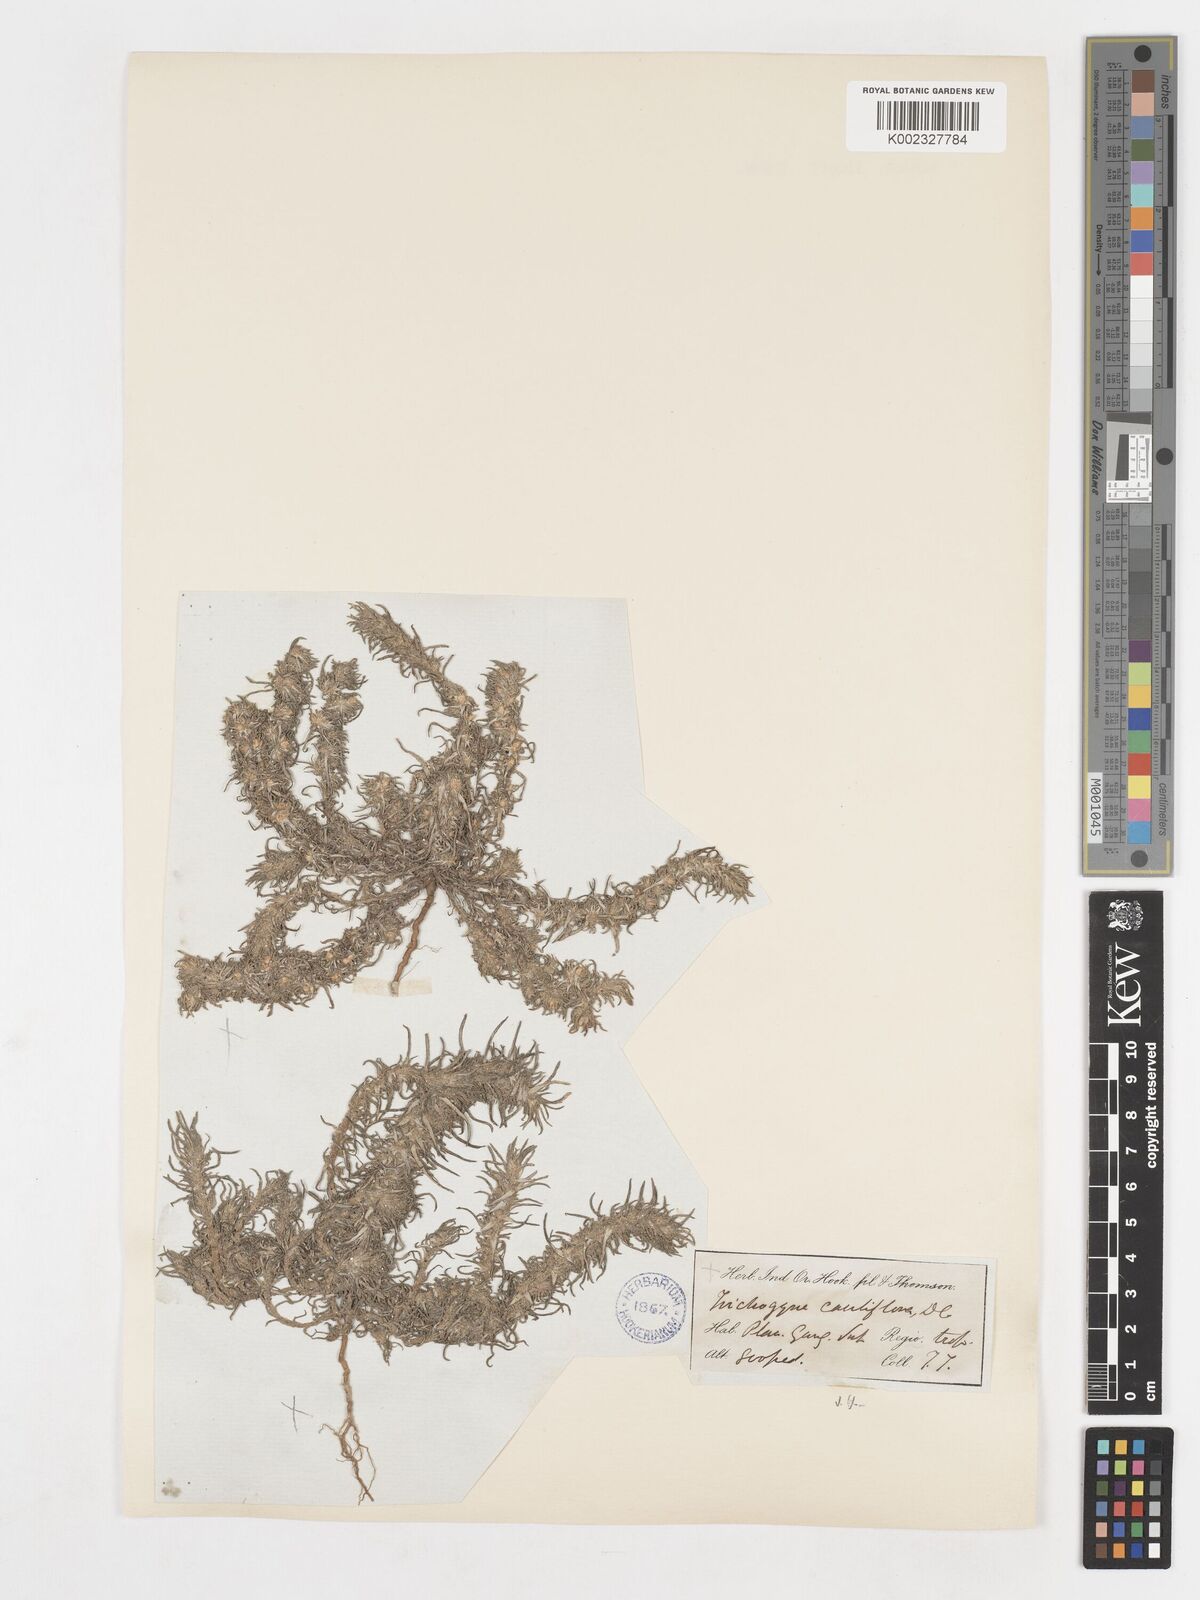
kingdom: Plantae
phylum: Tracheophyta
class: Magnoliopsida
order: Asterales
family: Asteraceae
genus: Ifloga
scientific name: Ifloga spicata
